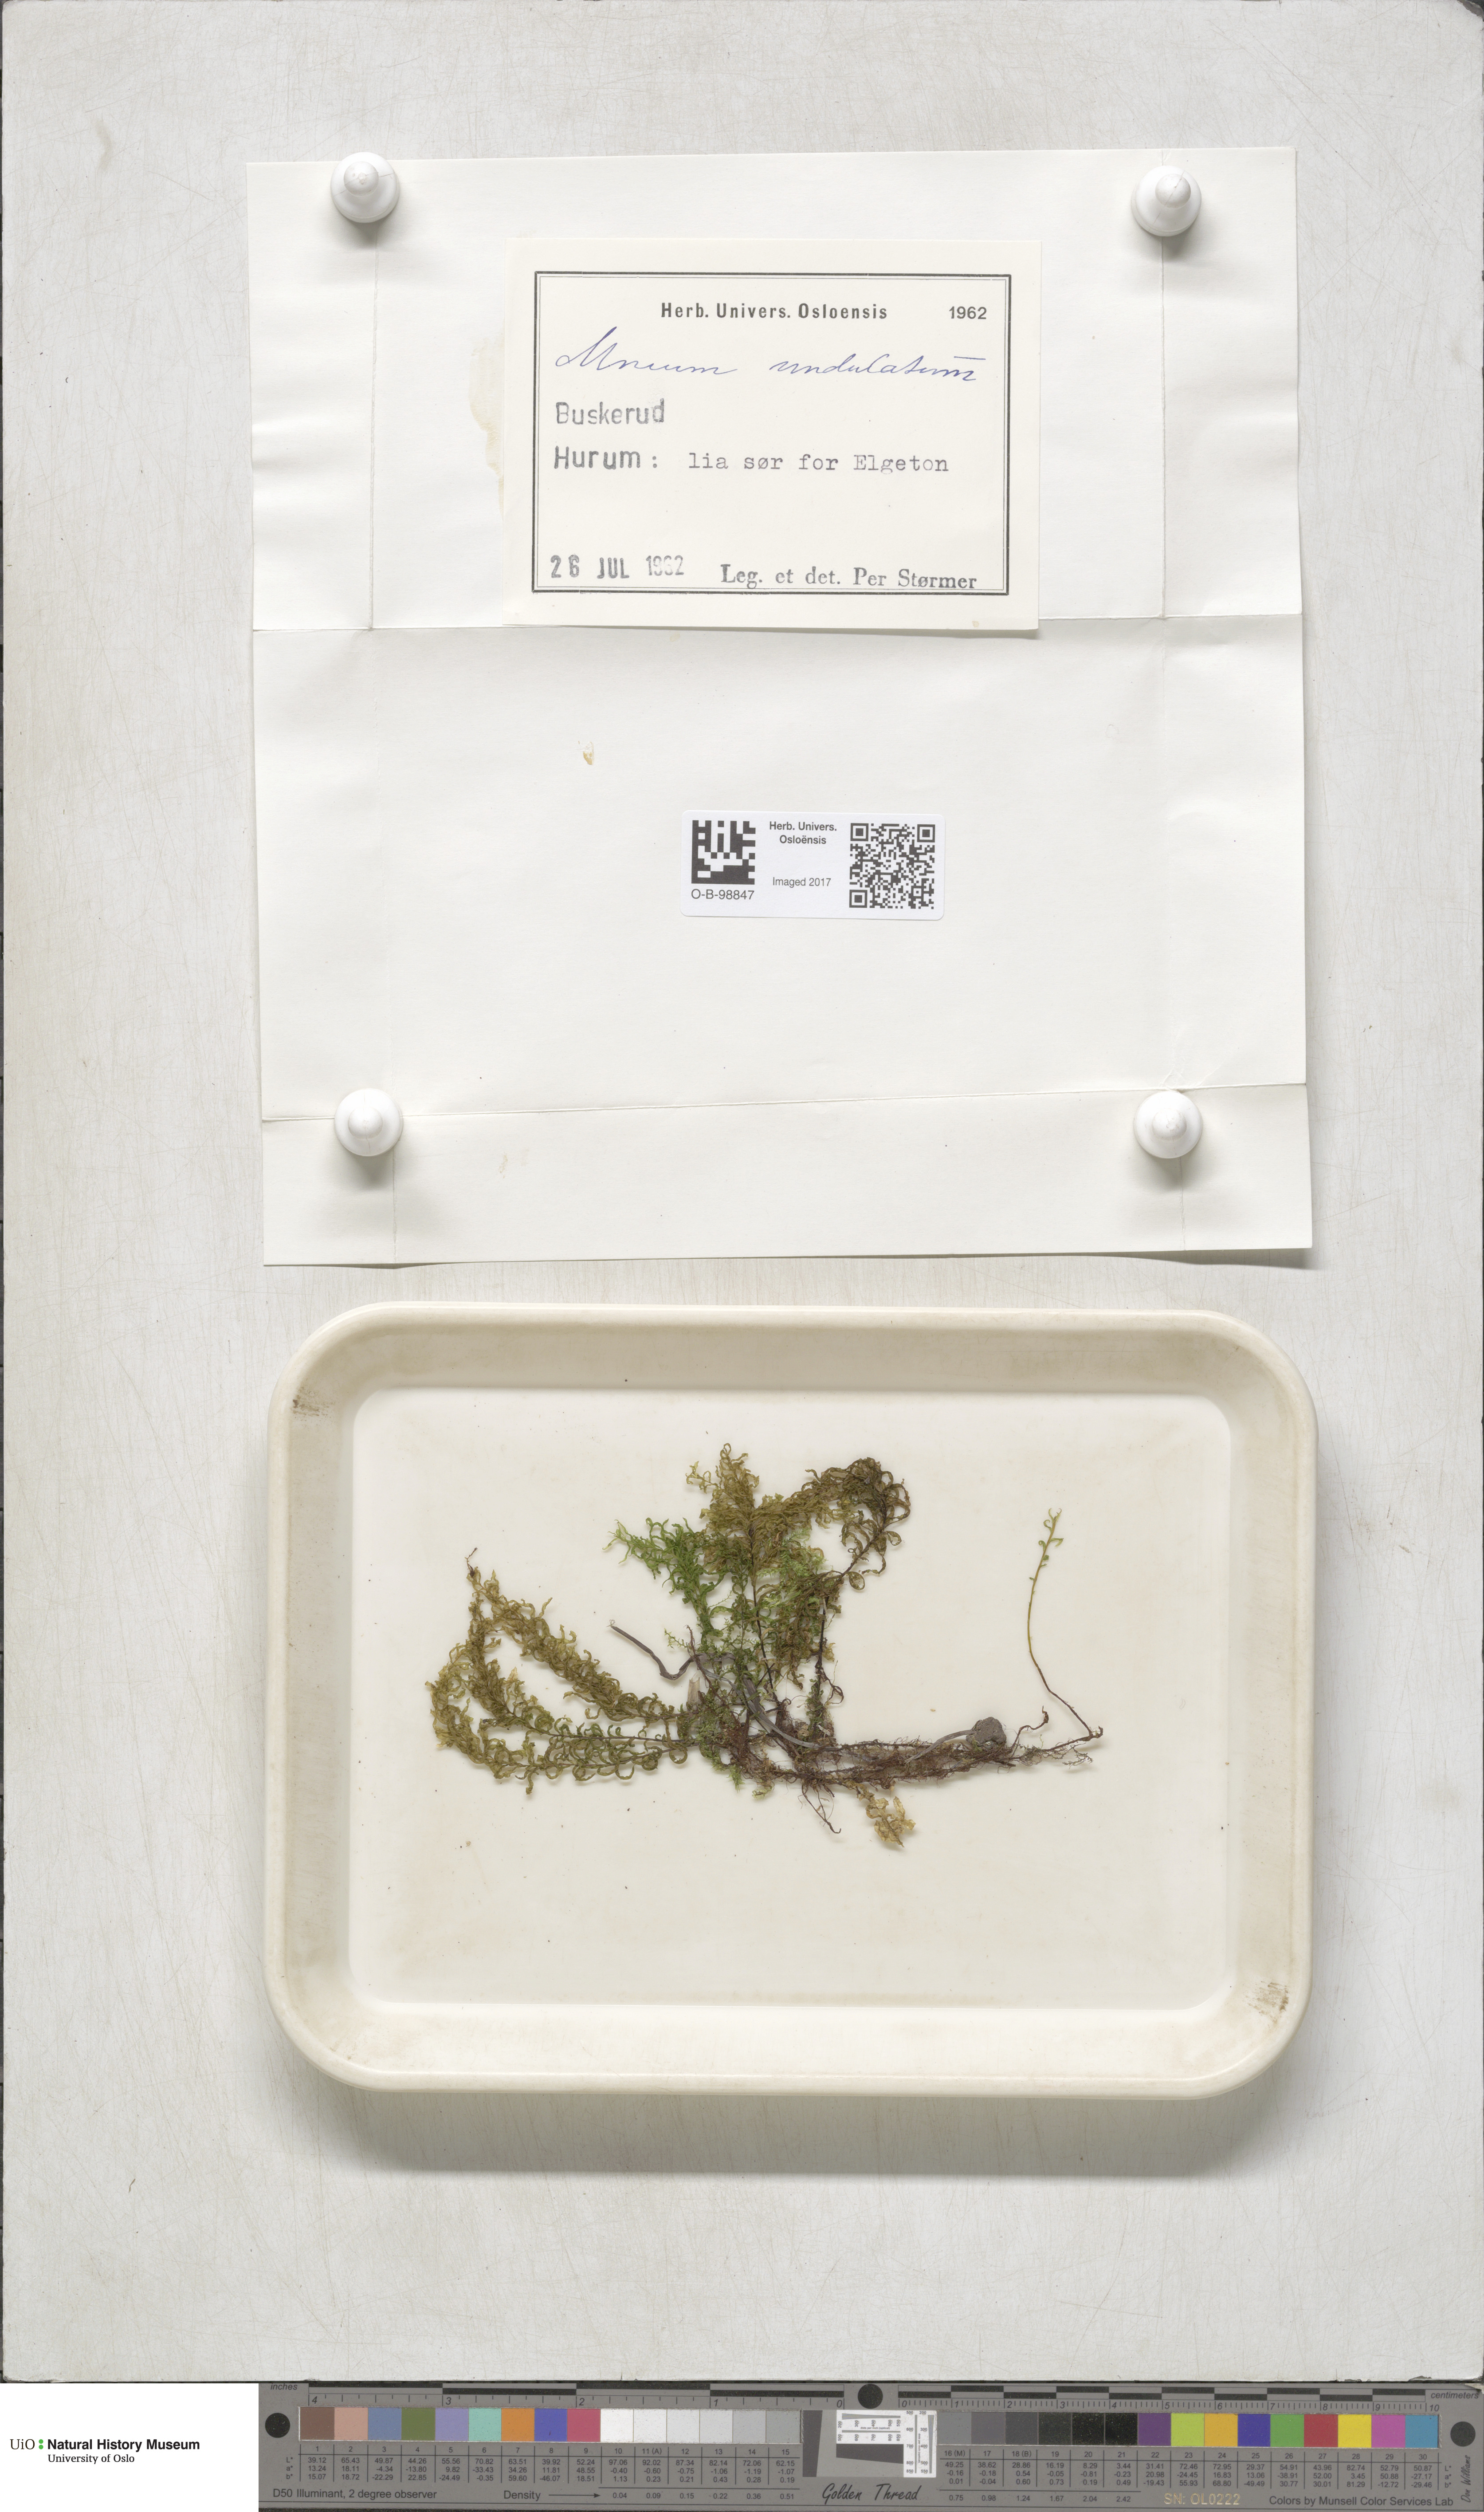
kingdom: Plantae
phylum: Bryophyta
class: Bryopsida
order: Bryales
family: Mniaceae
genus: Plagiomnium
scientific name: Plagiomnium undulatum
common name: Hart's-tongue thyme-moss
